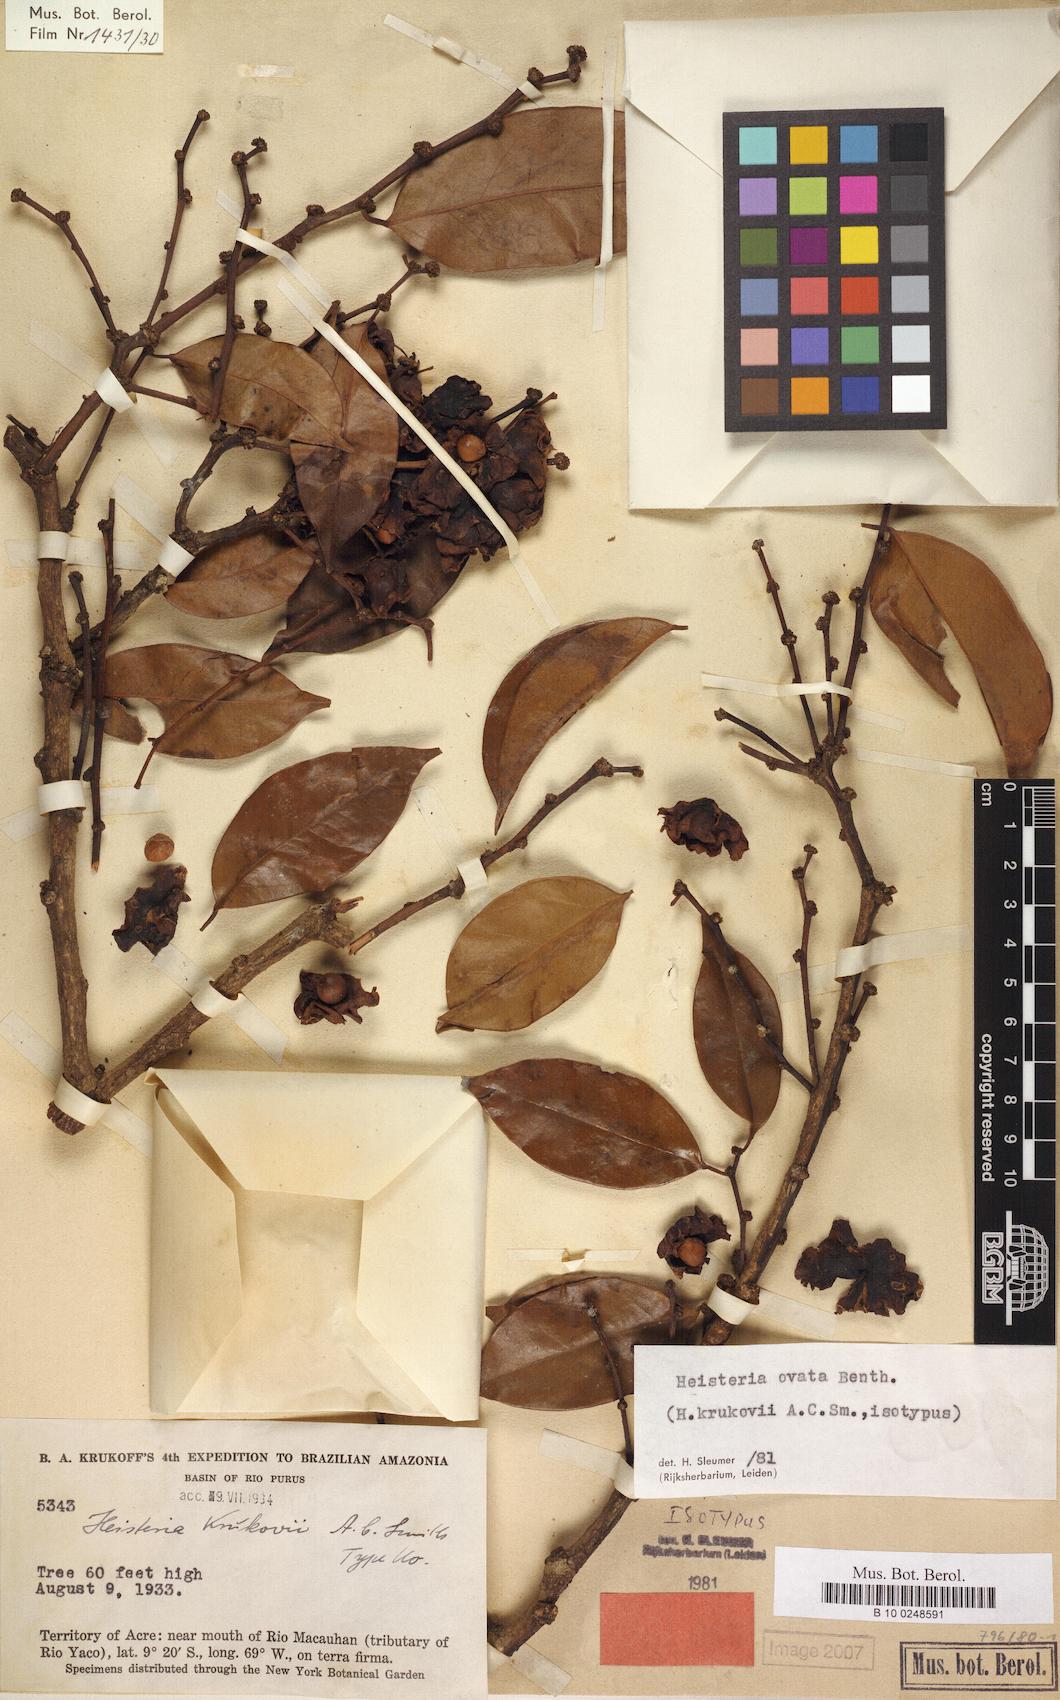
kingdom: Plantae
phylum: Tracheophyta
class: Magnoliopsida
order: Santalales
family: Erythropalaceae
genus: Heisteria
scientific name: Heisteria ovata
